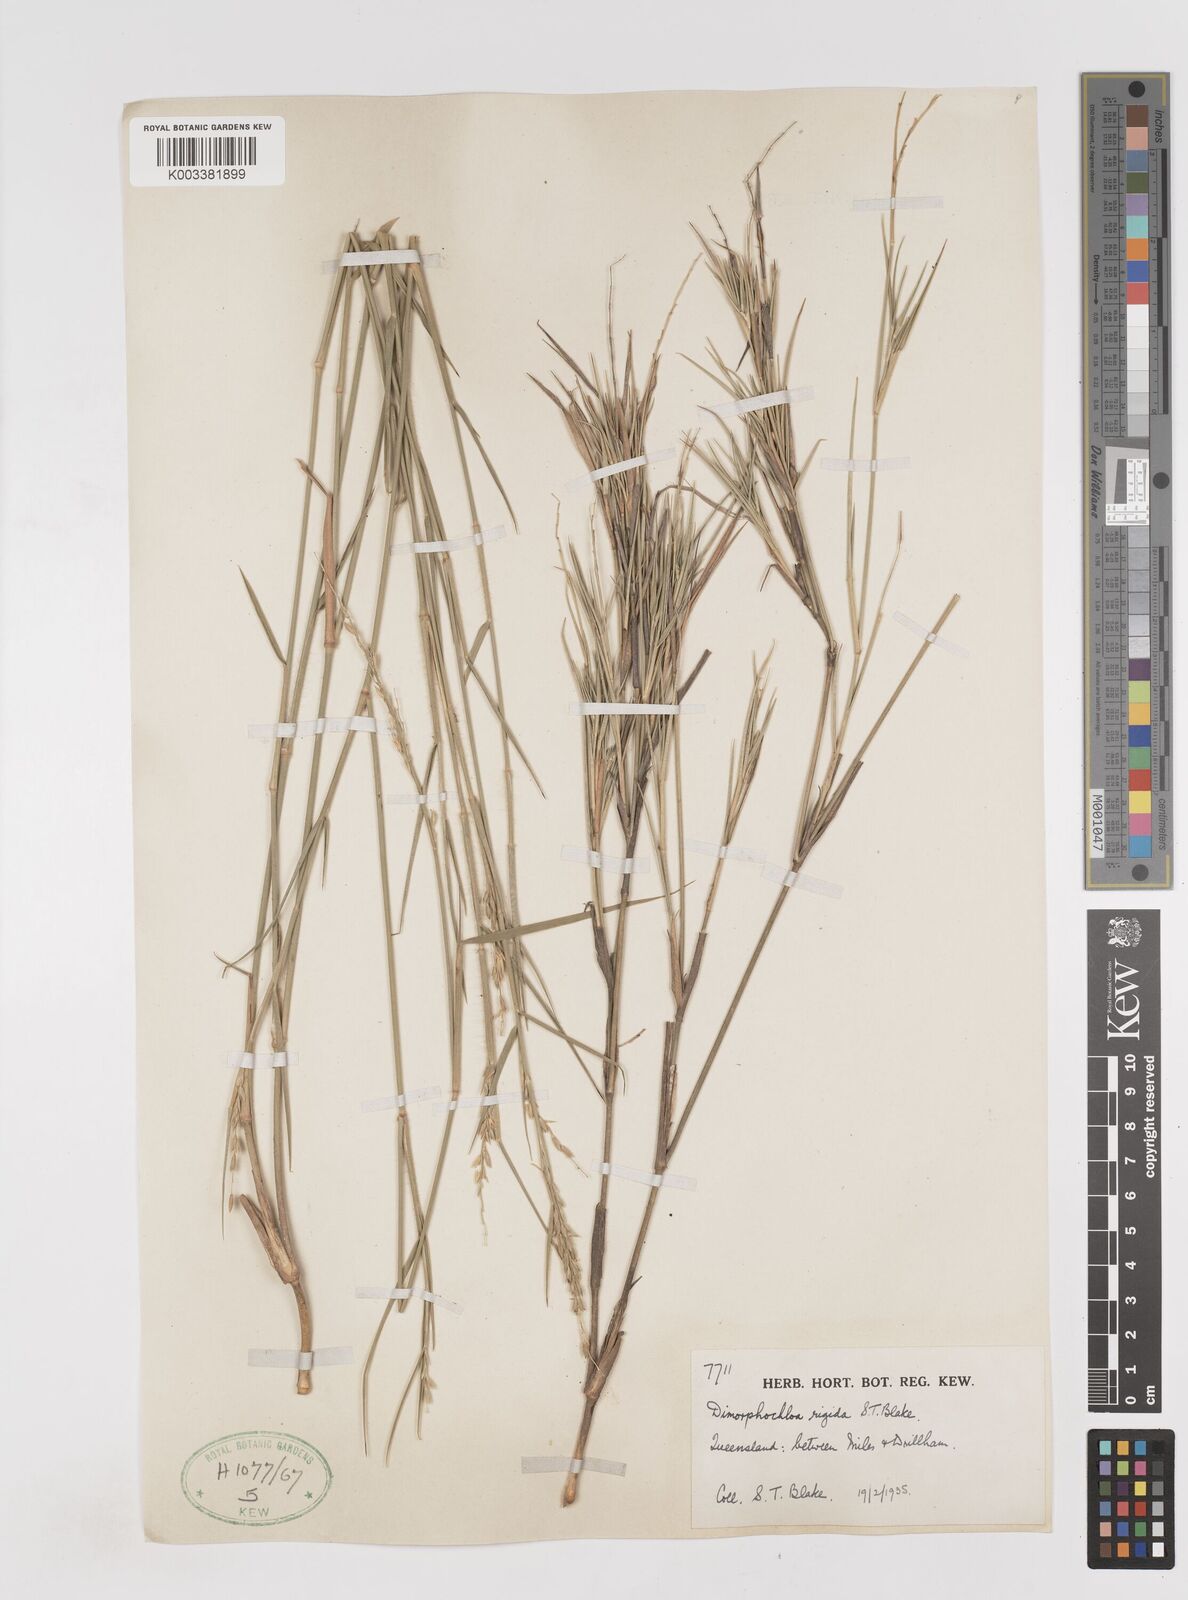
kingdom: Plantae
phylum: Tracheophyta
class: Liliopsida
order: Poales
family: Poaceae
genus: Dimorphochloa
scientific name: Dimorphochloa rigida
